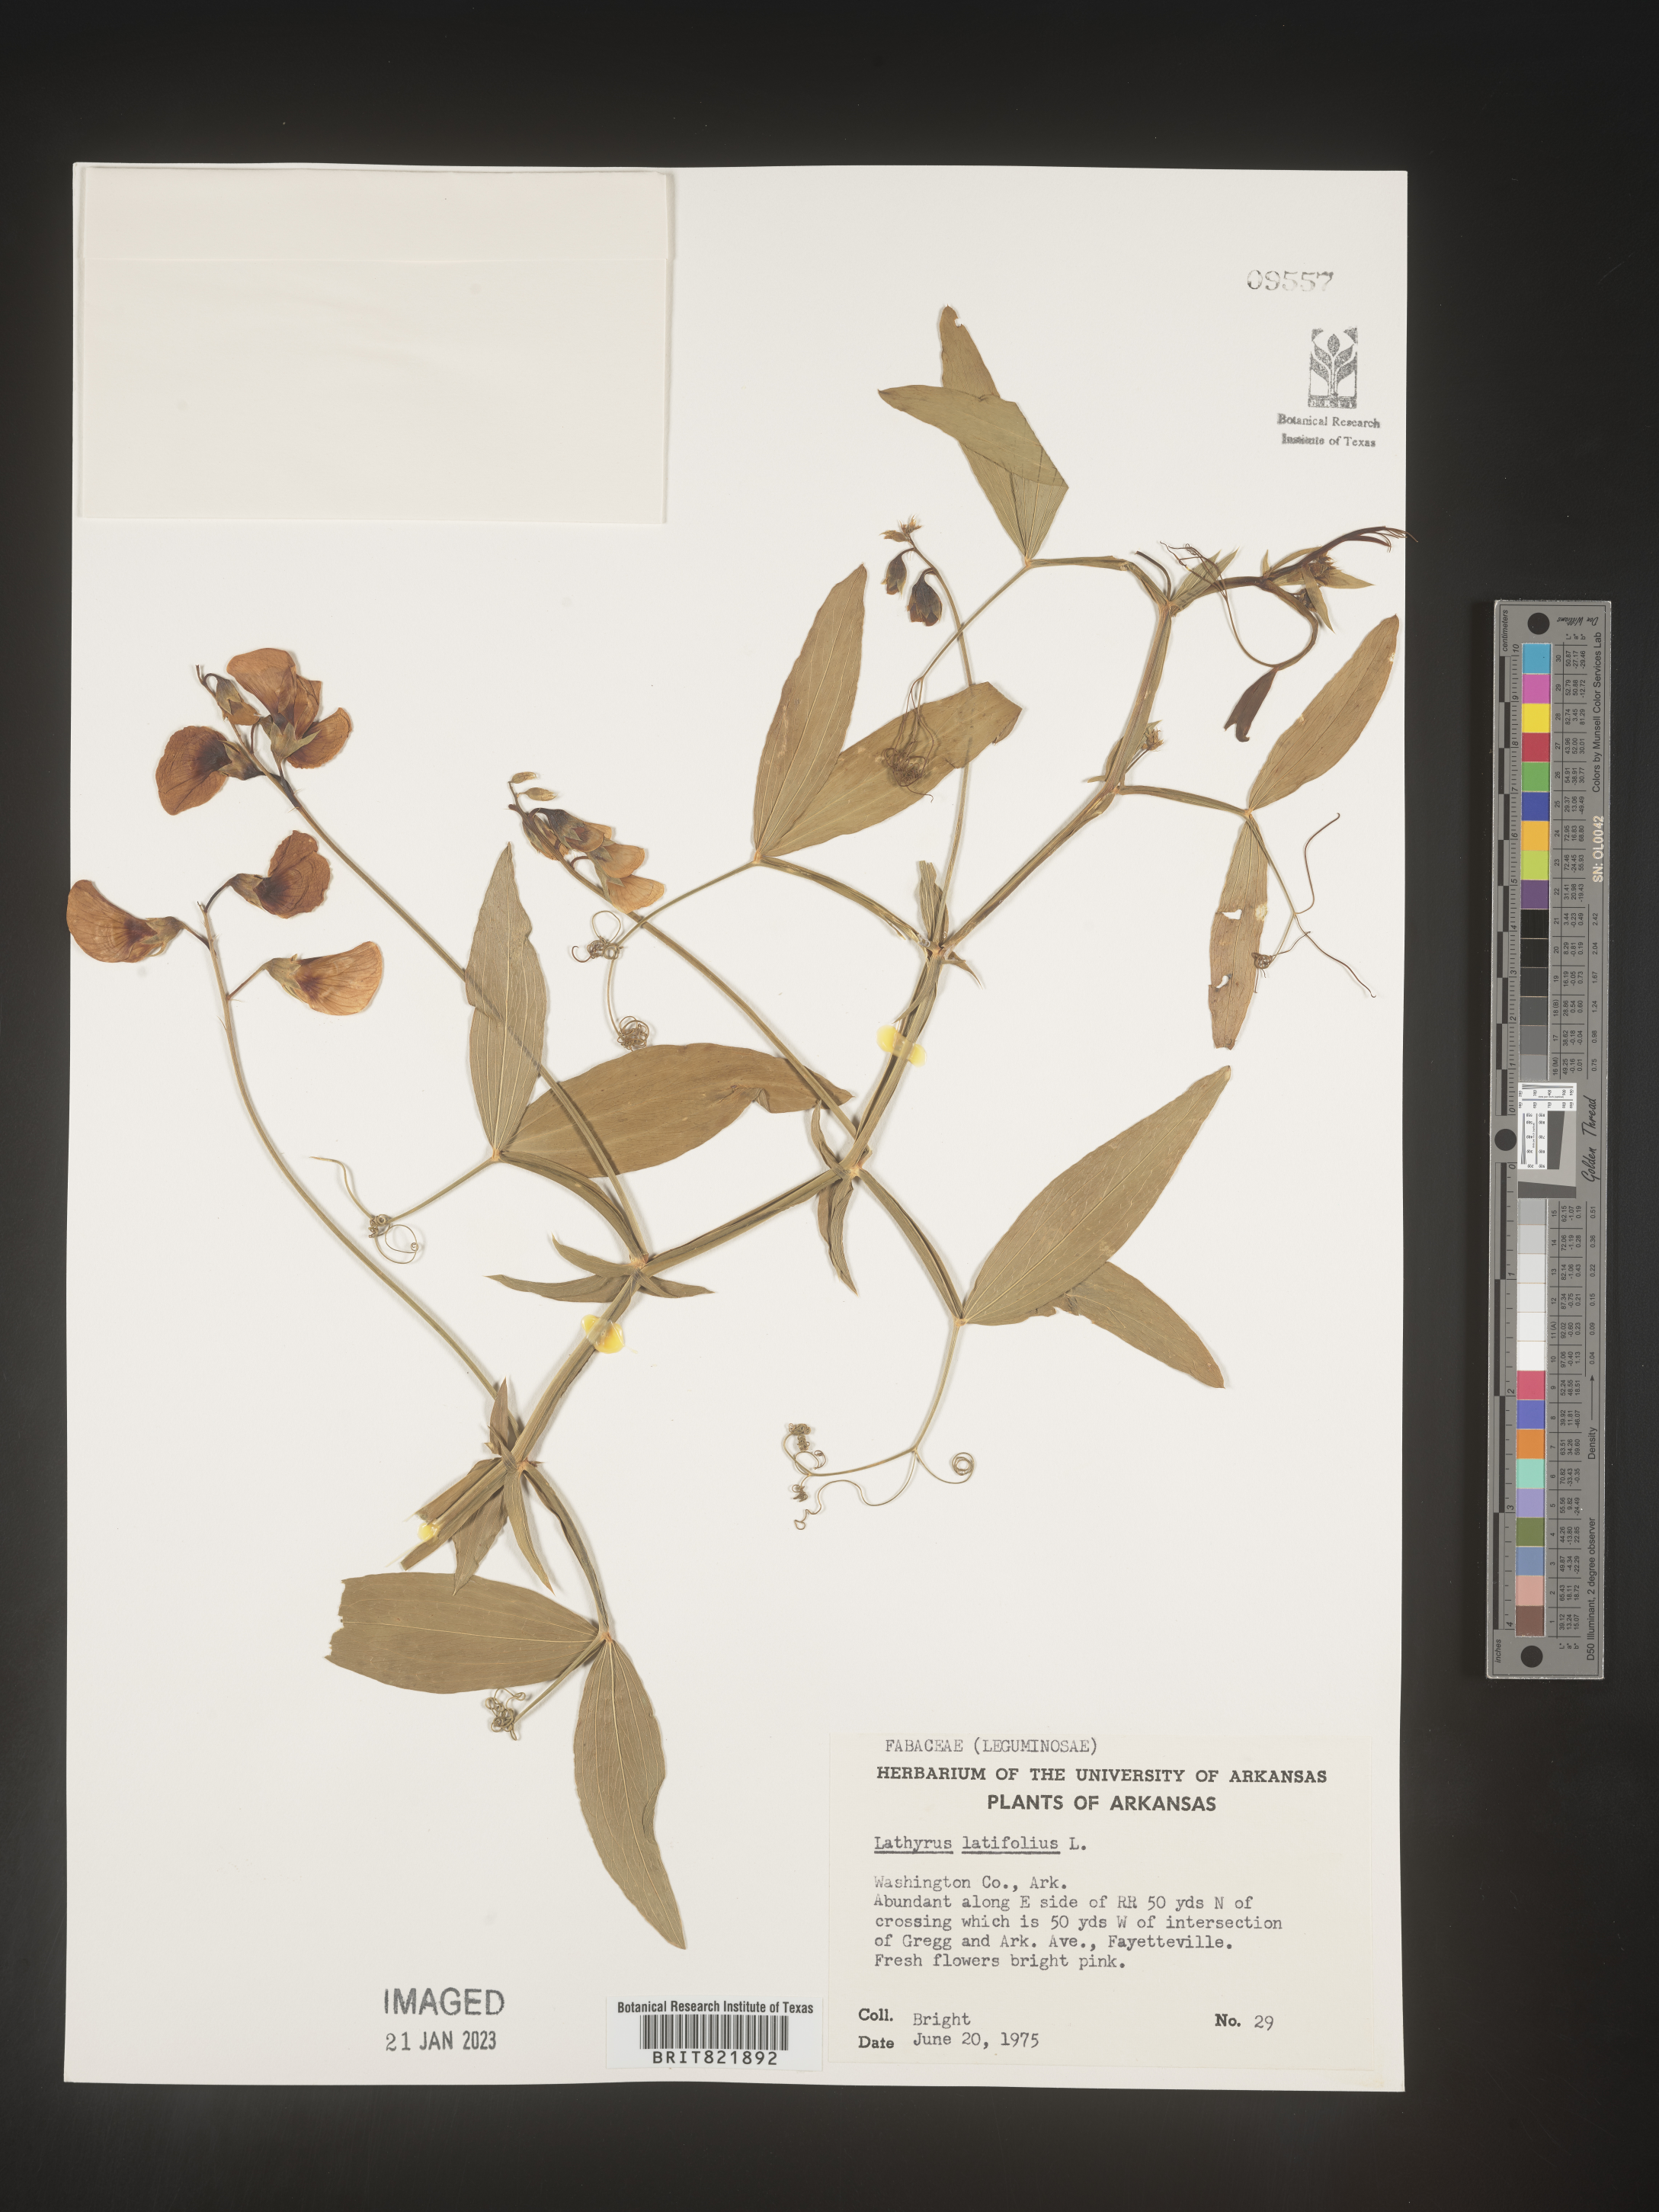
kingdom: Plantae
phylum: Tracheophyta
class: Magnoliopsida
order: Fabales
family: Fabaceae
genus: Lathyrus
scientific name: Lathyrus latifolius
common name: Perennial pea
